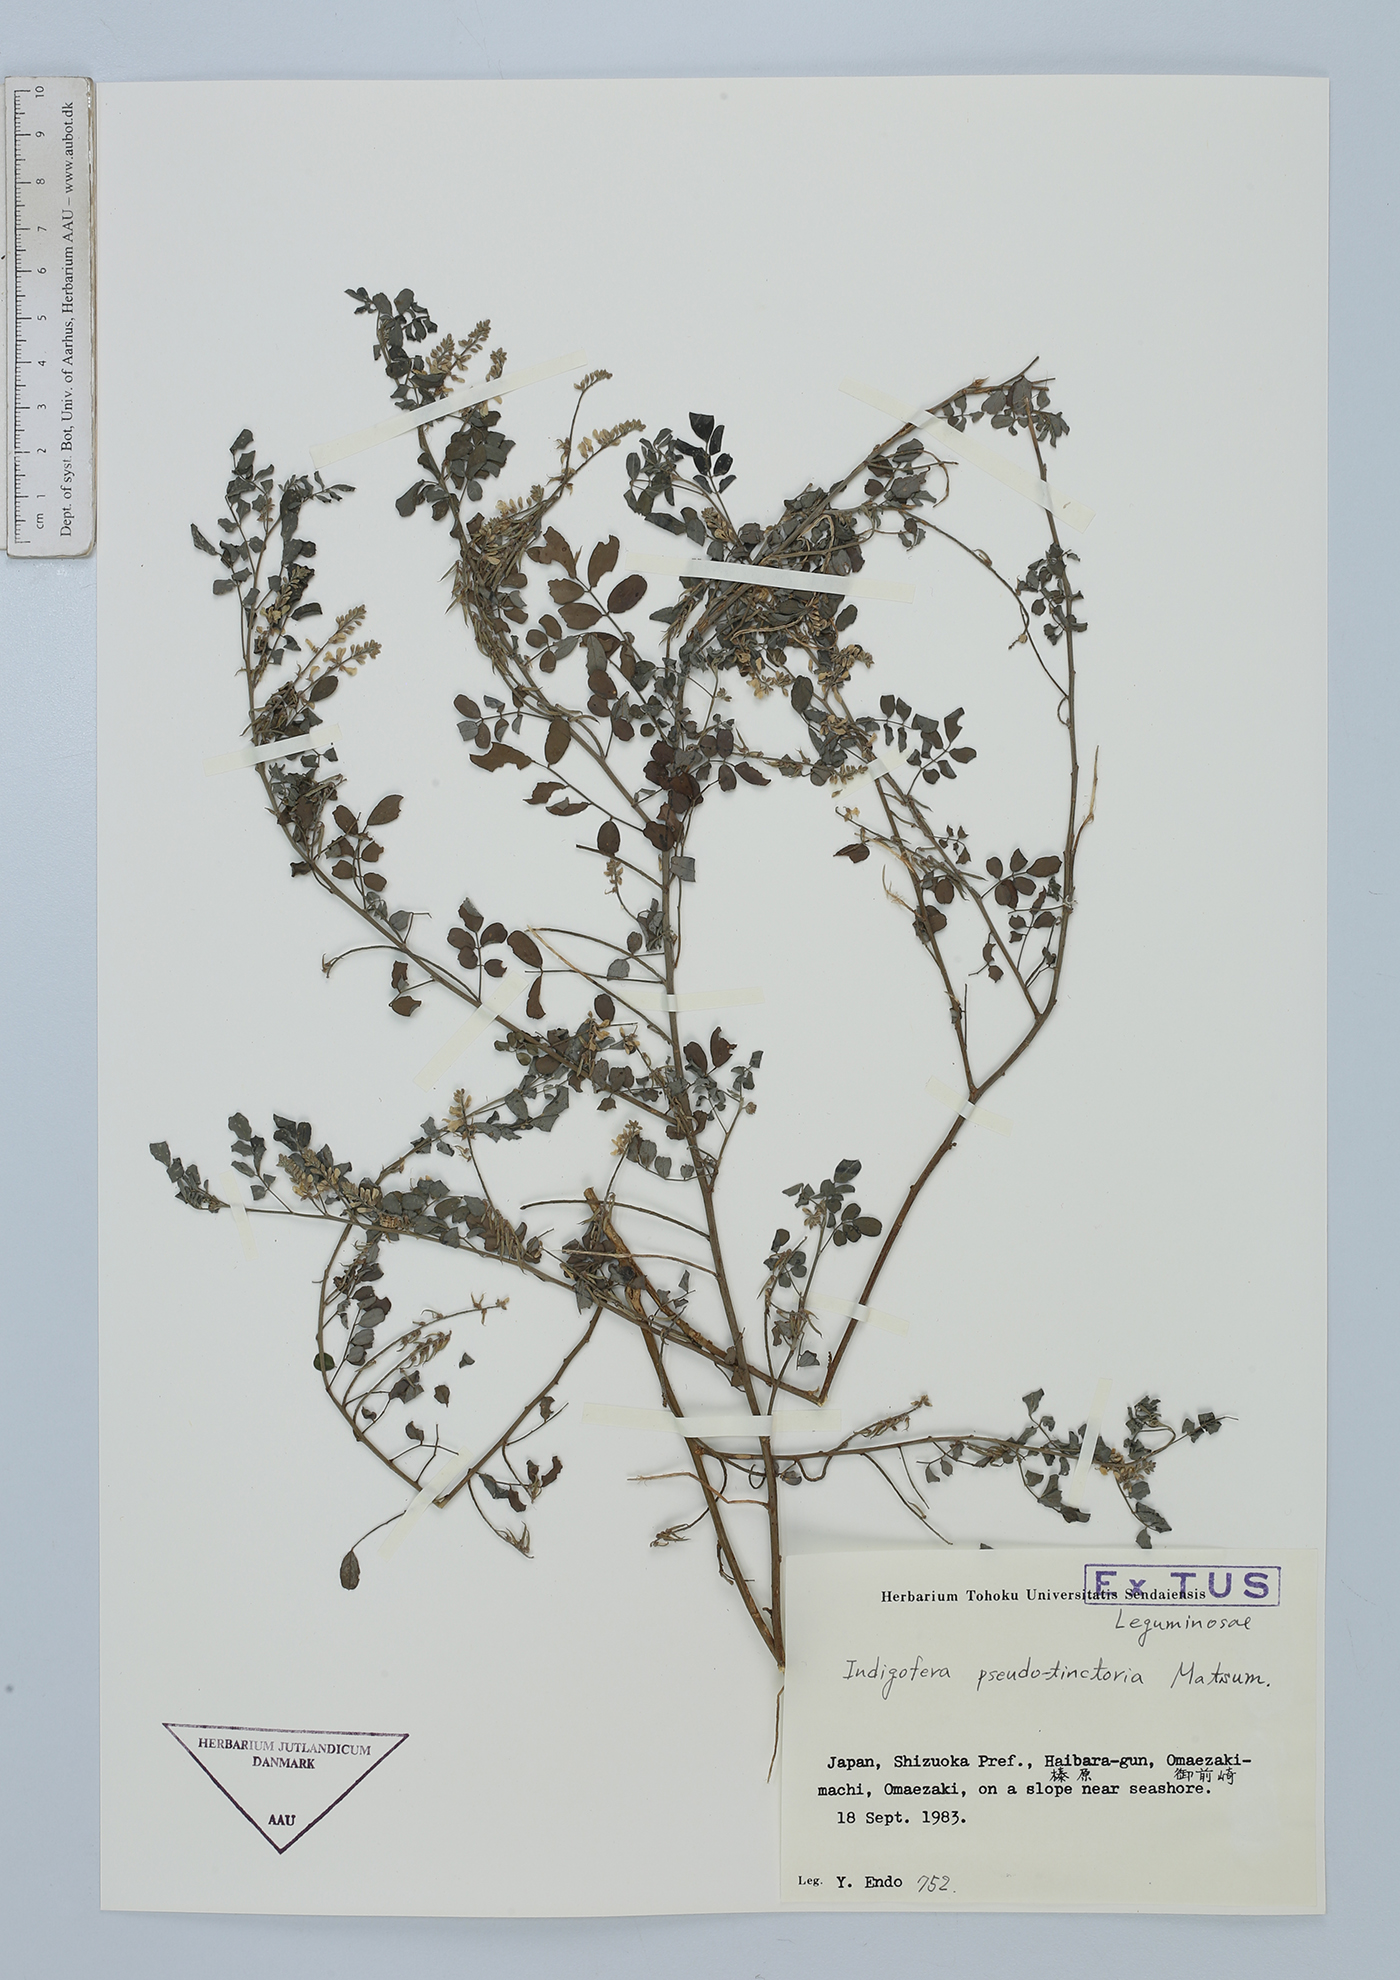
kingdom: Plantae
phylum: Tracheophyta
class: Magnoliopsida
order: Fabales
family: Fabaceae
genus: Indigofera
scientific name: Indigofera bungeana
